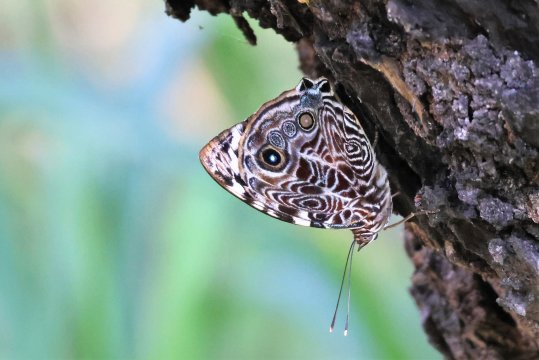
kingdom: Animalia
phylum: Arthropoda
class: Insecta
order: Lepidoptera
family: Nymphalidae
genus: Smyrna
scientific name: Smyrna blomfildia
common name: Blomfild's Beauty
